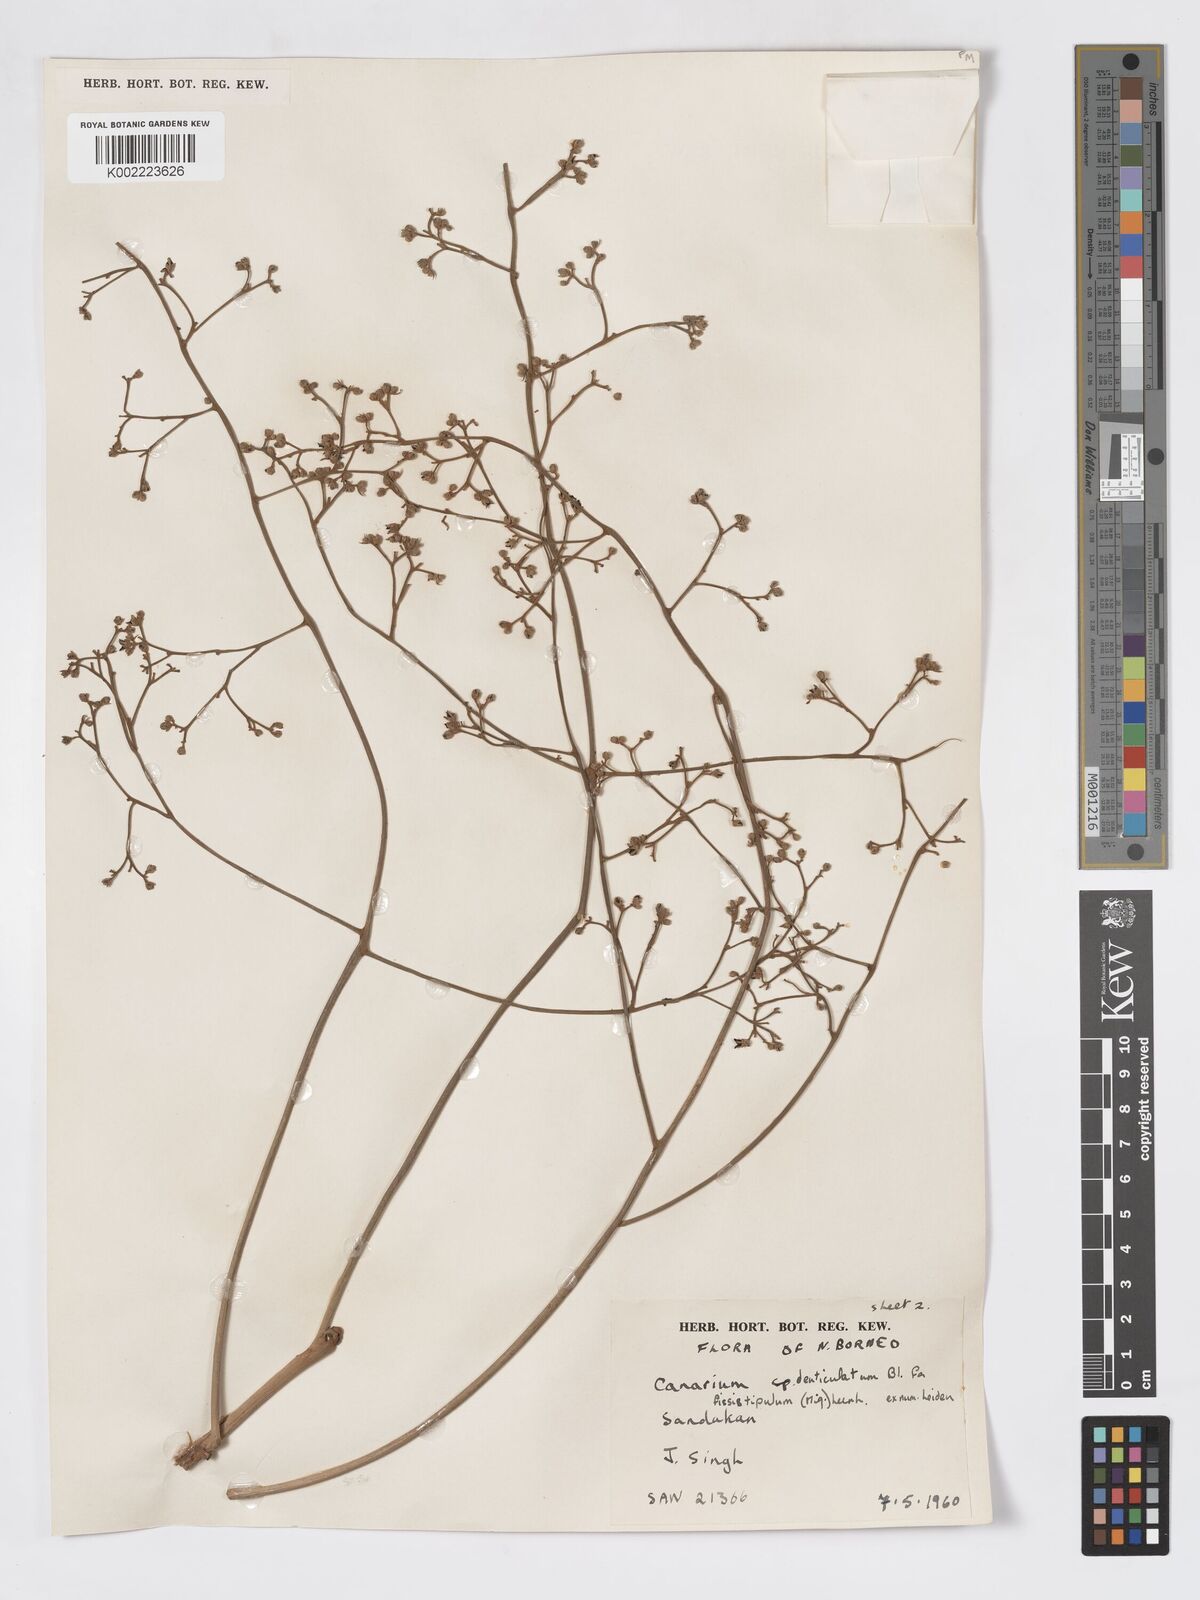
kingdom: Plantae
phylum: Tracheophyta
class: Magnoliopsida
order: Sapindales
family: Burseraceae
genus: Canarium
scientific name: Canarium denticulatum
